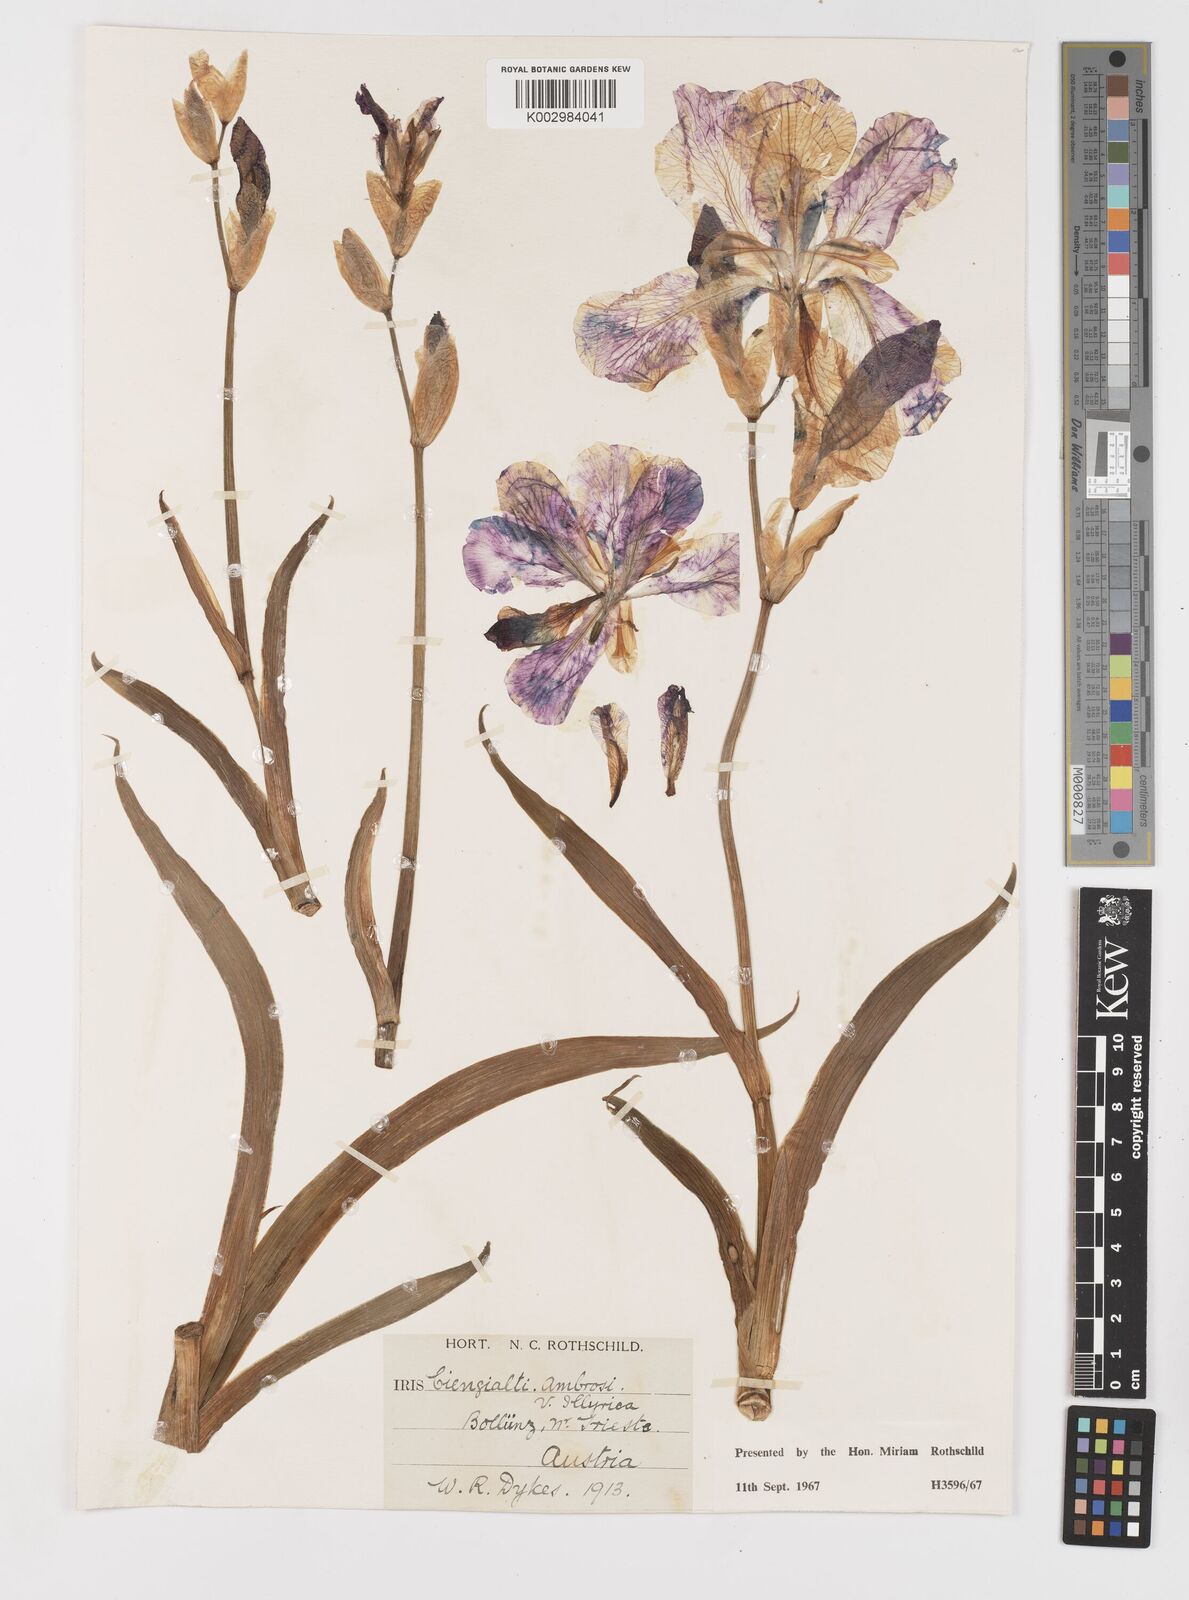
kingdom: Plantae
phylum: Tracheophyta
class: Liliopsida
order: Asparagales
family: Iridaceae
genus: Iris
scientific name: Iris pallida
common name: Sweet iris
